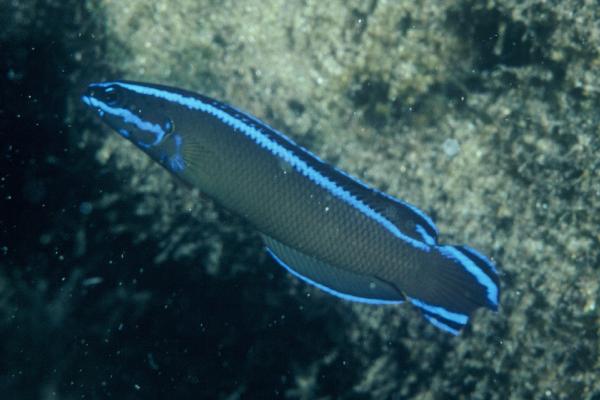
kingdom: Animalia
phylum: Chordata
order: Perciformes
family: Pseudochromidae
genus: Pseudochromis
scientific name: Pseudochromis dutoiti
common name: Dutoiti
